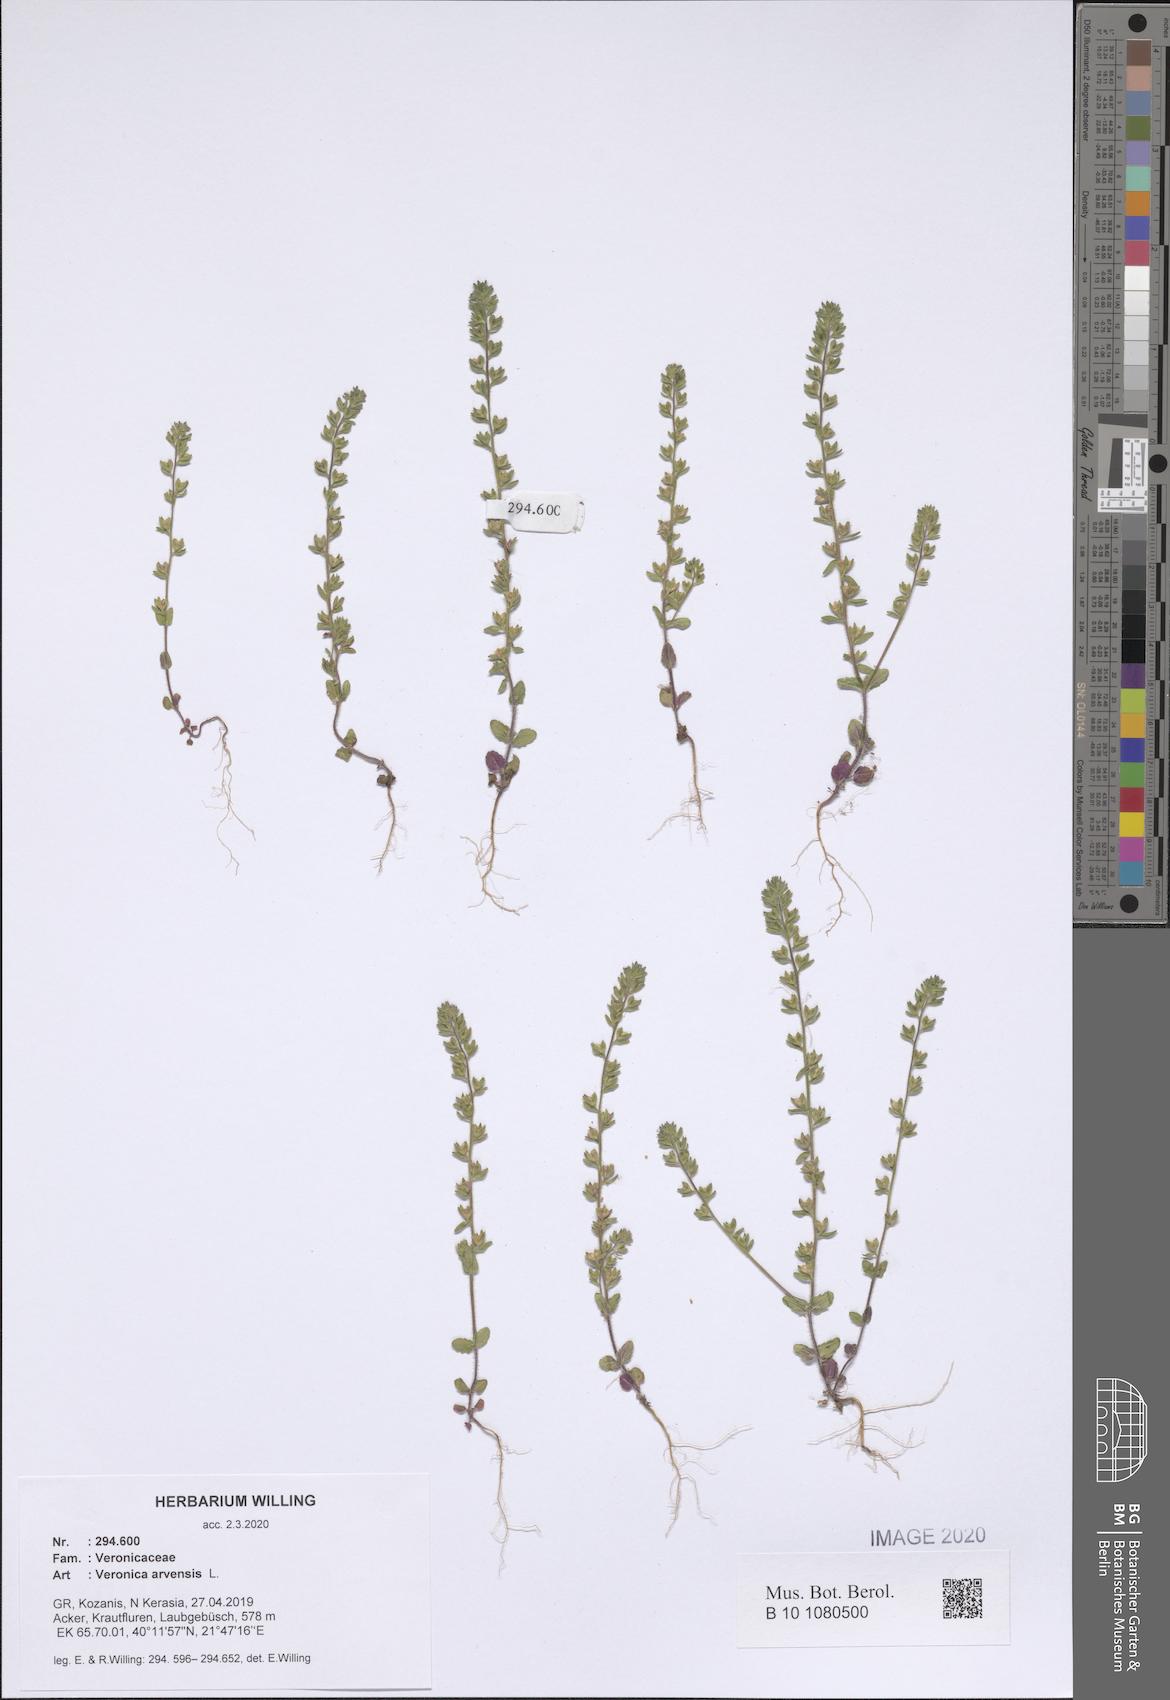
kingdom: Plantae
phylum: Tracheophyta
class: Magnoliopsida
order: Lamiales
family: Plantaginaceae
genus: Veronica
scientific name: Veronica arvensis
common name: Corn speedwell
